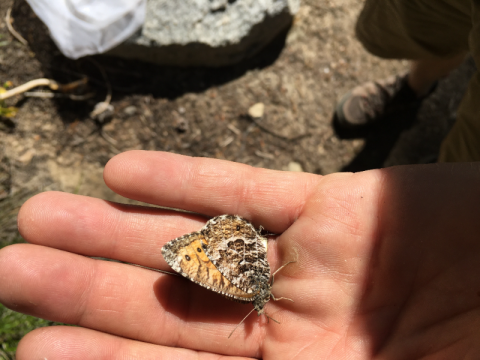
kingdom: Animalia
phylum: Arthropoda
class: Insecta
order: Lepidoptera
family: Nymphalidae
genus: Oeneis
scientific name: Oeneis chryxus
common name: Chryxus Arctic
